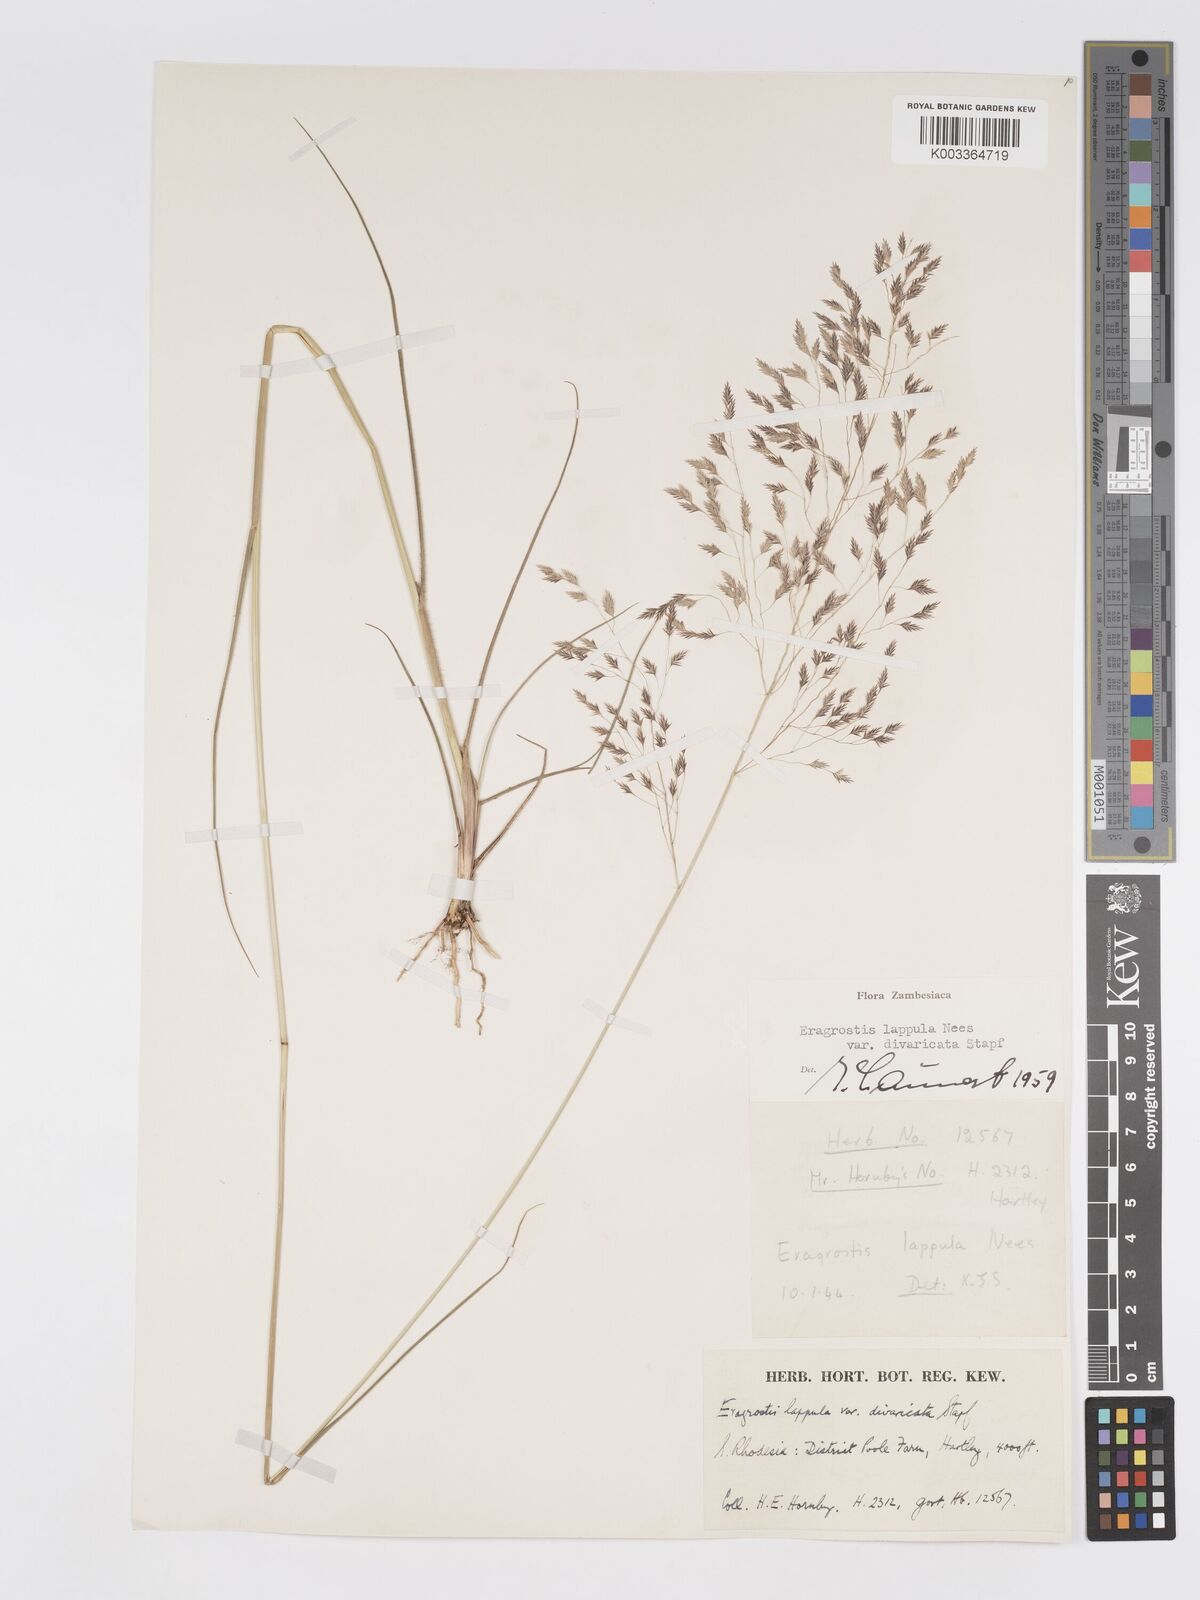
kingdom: Plantae
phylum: Tracheophyta
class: Liliopsida
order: Poales
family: Poaceae
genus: Eragrostis
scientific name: Eragrostis lappula
